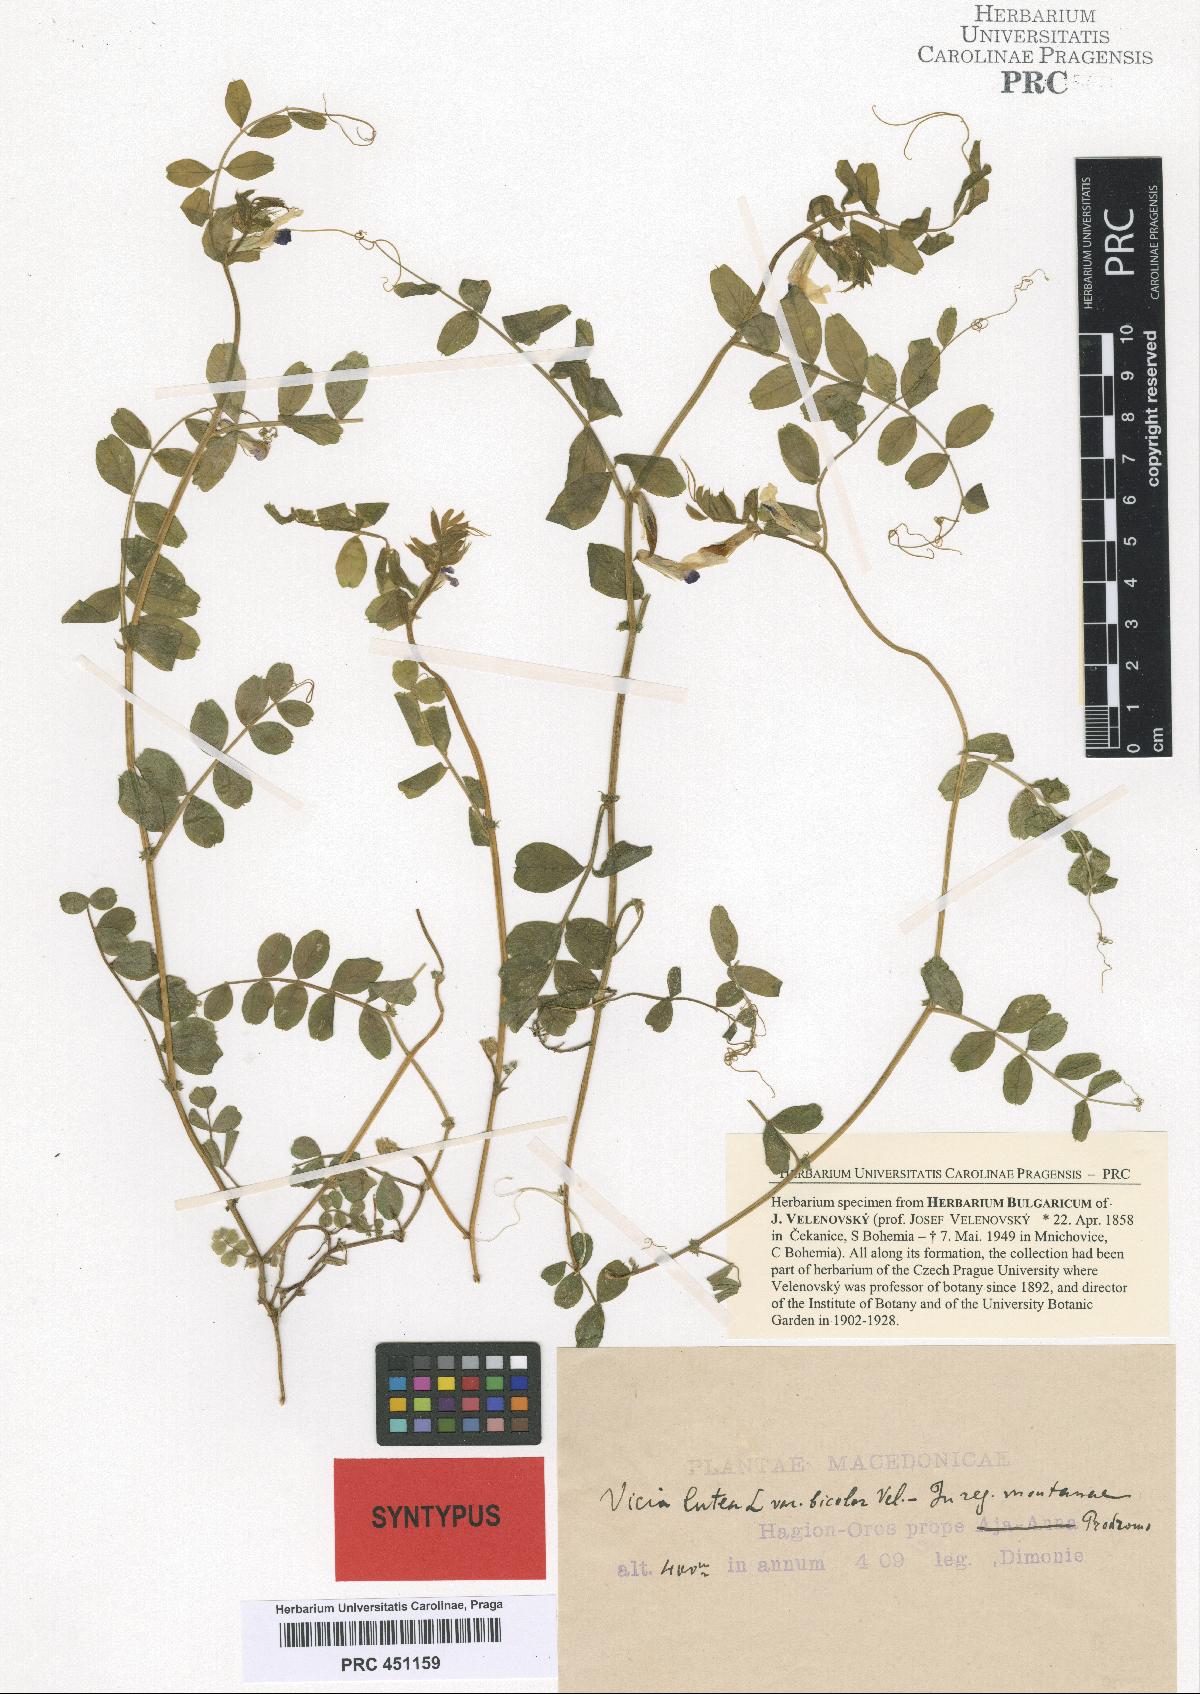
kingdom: Plantae
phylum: Tracheophyta
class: Magnoliopsida
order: Fabales
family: Fabaceae
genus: Vicia
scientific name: Vicia laeta
